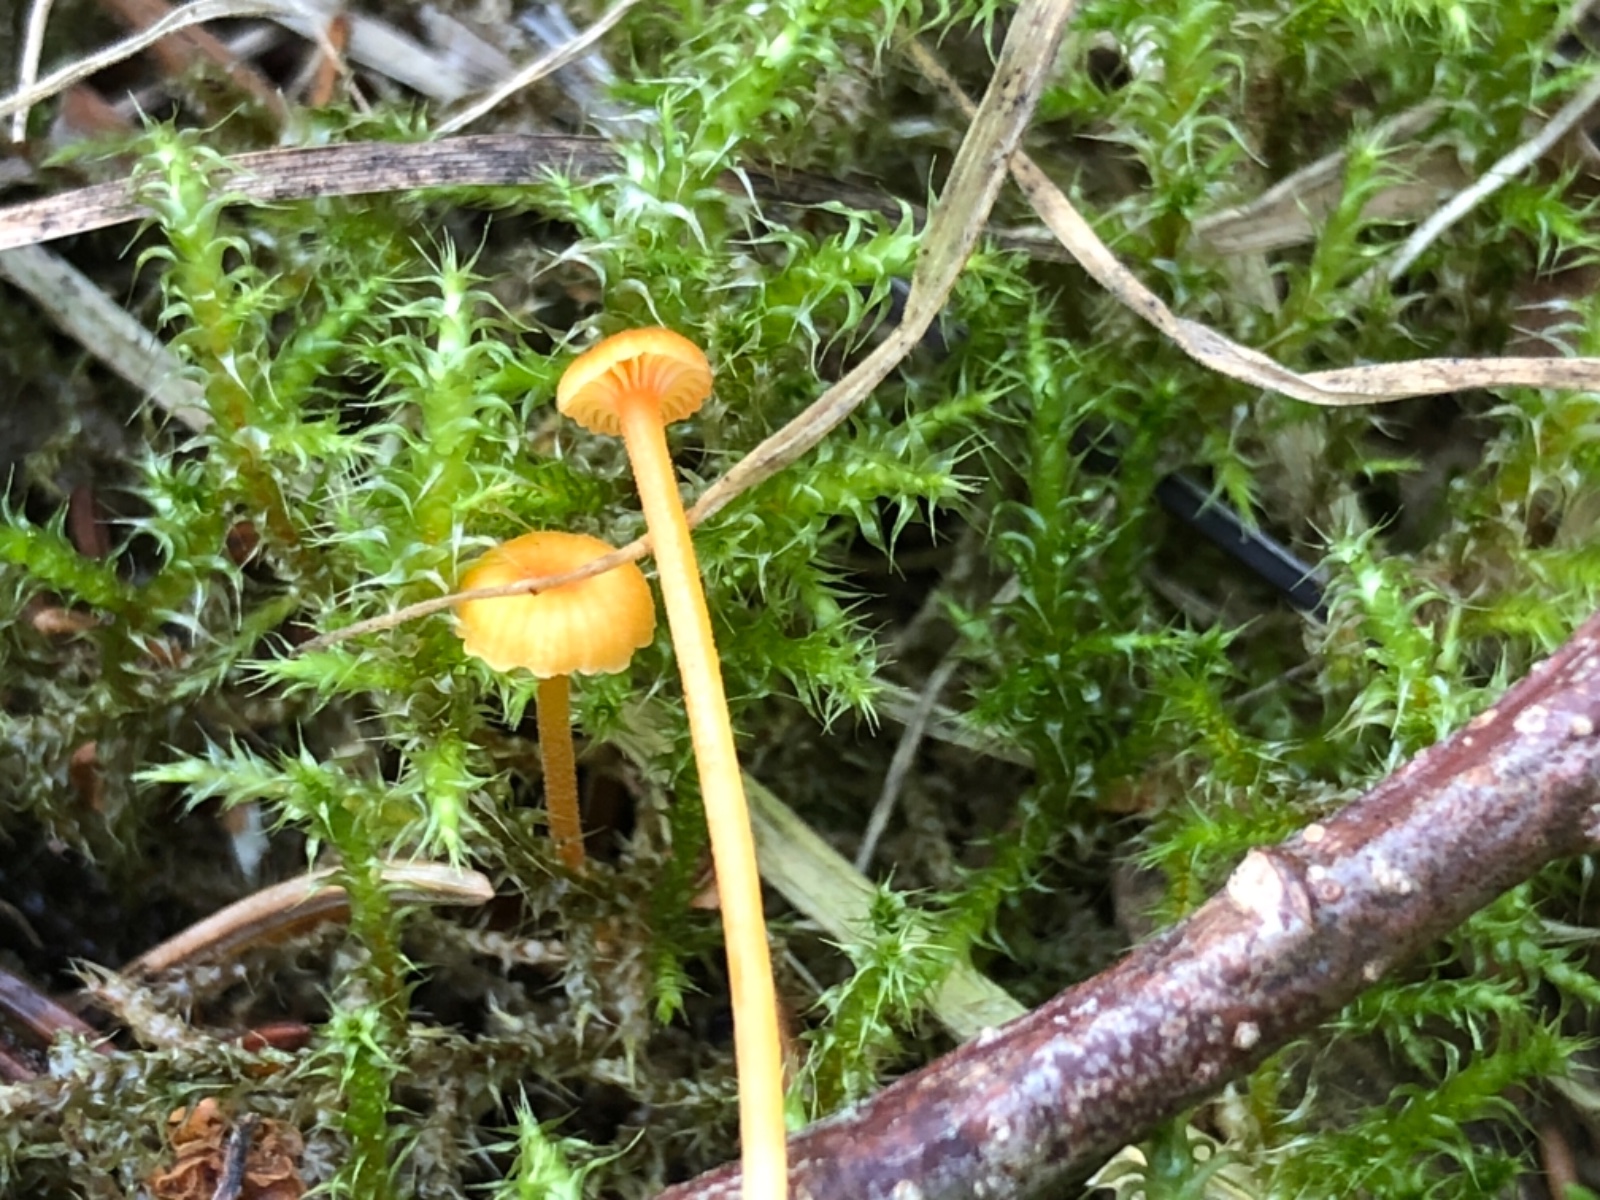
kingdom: Fungi
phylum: Basidiomycota
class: Agaricomycetes
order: Hymenochaetales
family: Rickenellaceae
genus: Rickenella
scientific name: Rickenella fibula
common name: orange mosnavlehat
